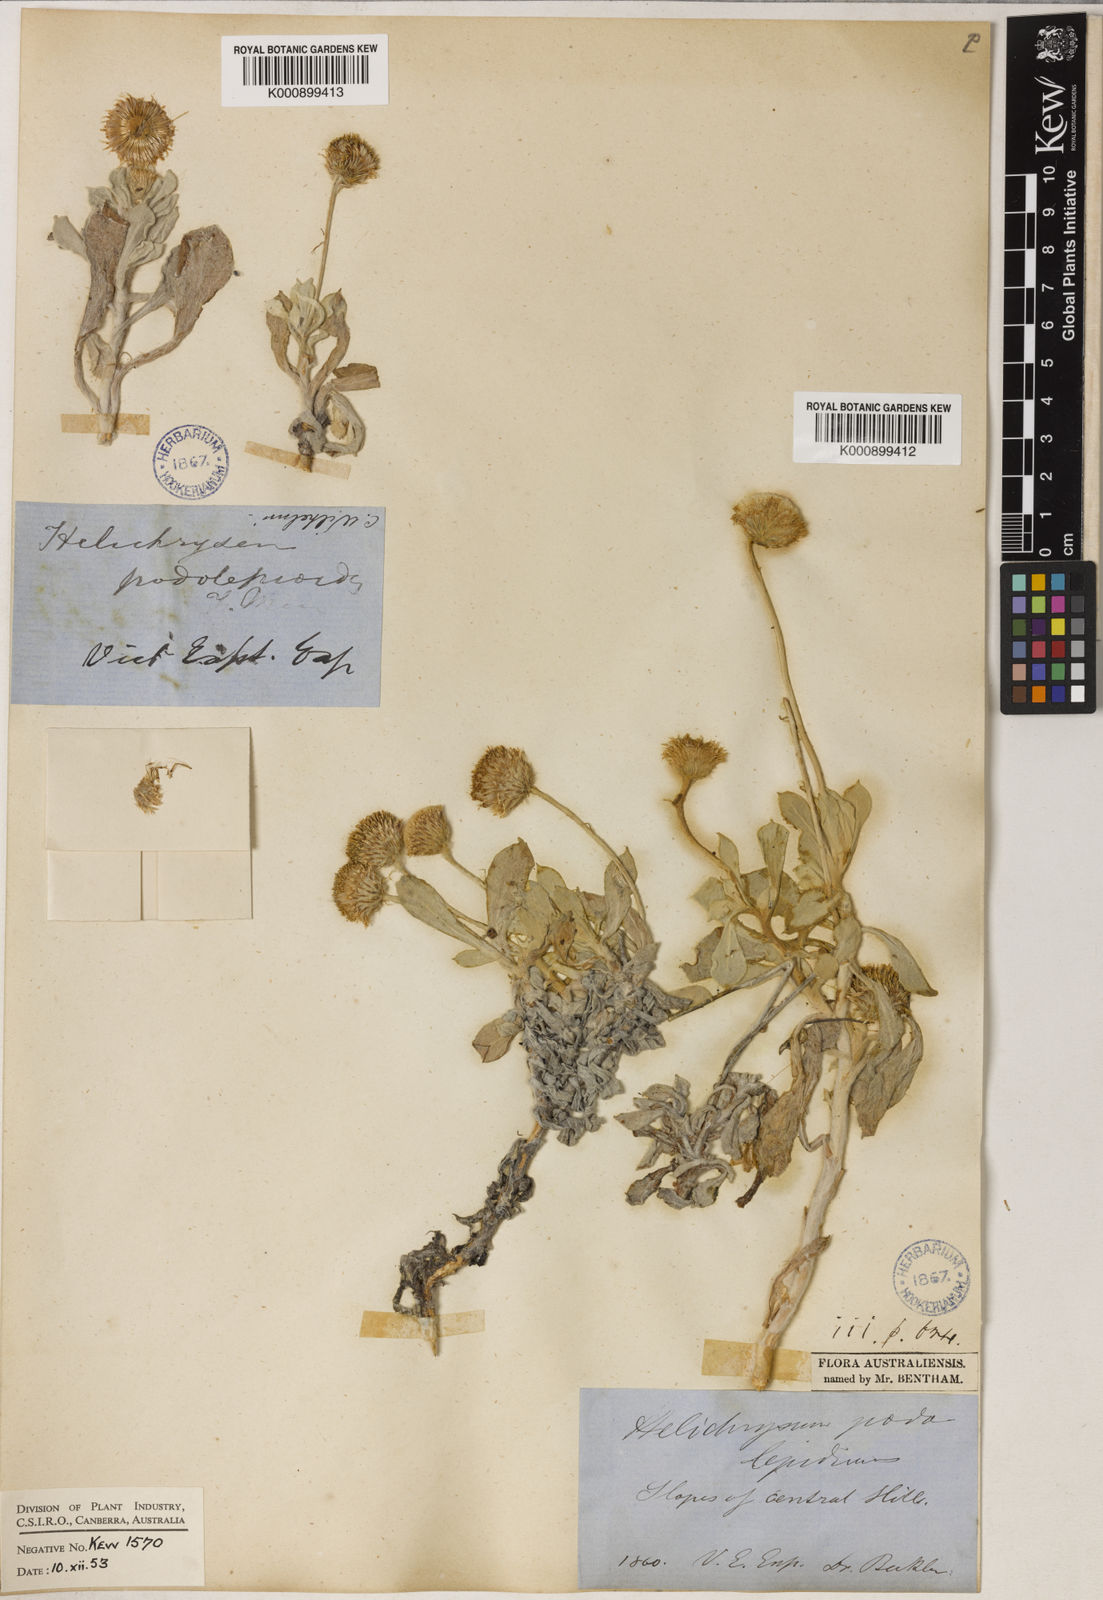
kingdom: Plantae
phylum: Tracheophyta
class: Magnoliopsida
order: Asterales
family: Asteraceae
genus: Anemocarpa
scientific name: Anemocarpa podolepidium
